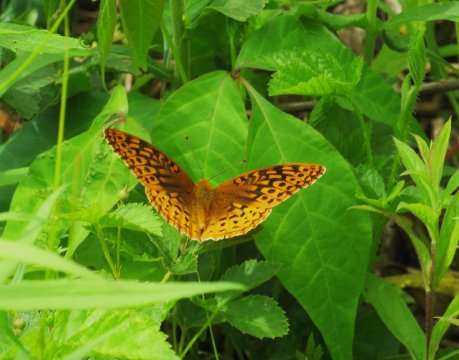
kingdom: Animalia
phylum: Arthropoda
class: Insecta
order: Lepidoptera
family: Nymphalidae
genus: Speyeria
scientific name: Speyeria cybele
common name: Great Spangled Fritillary
